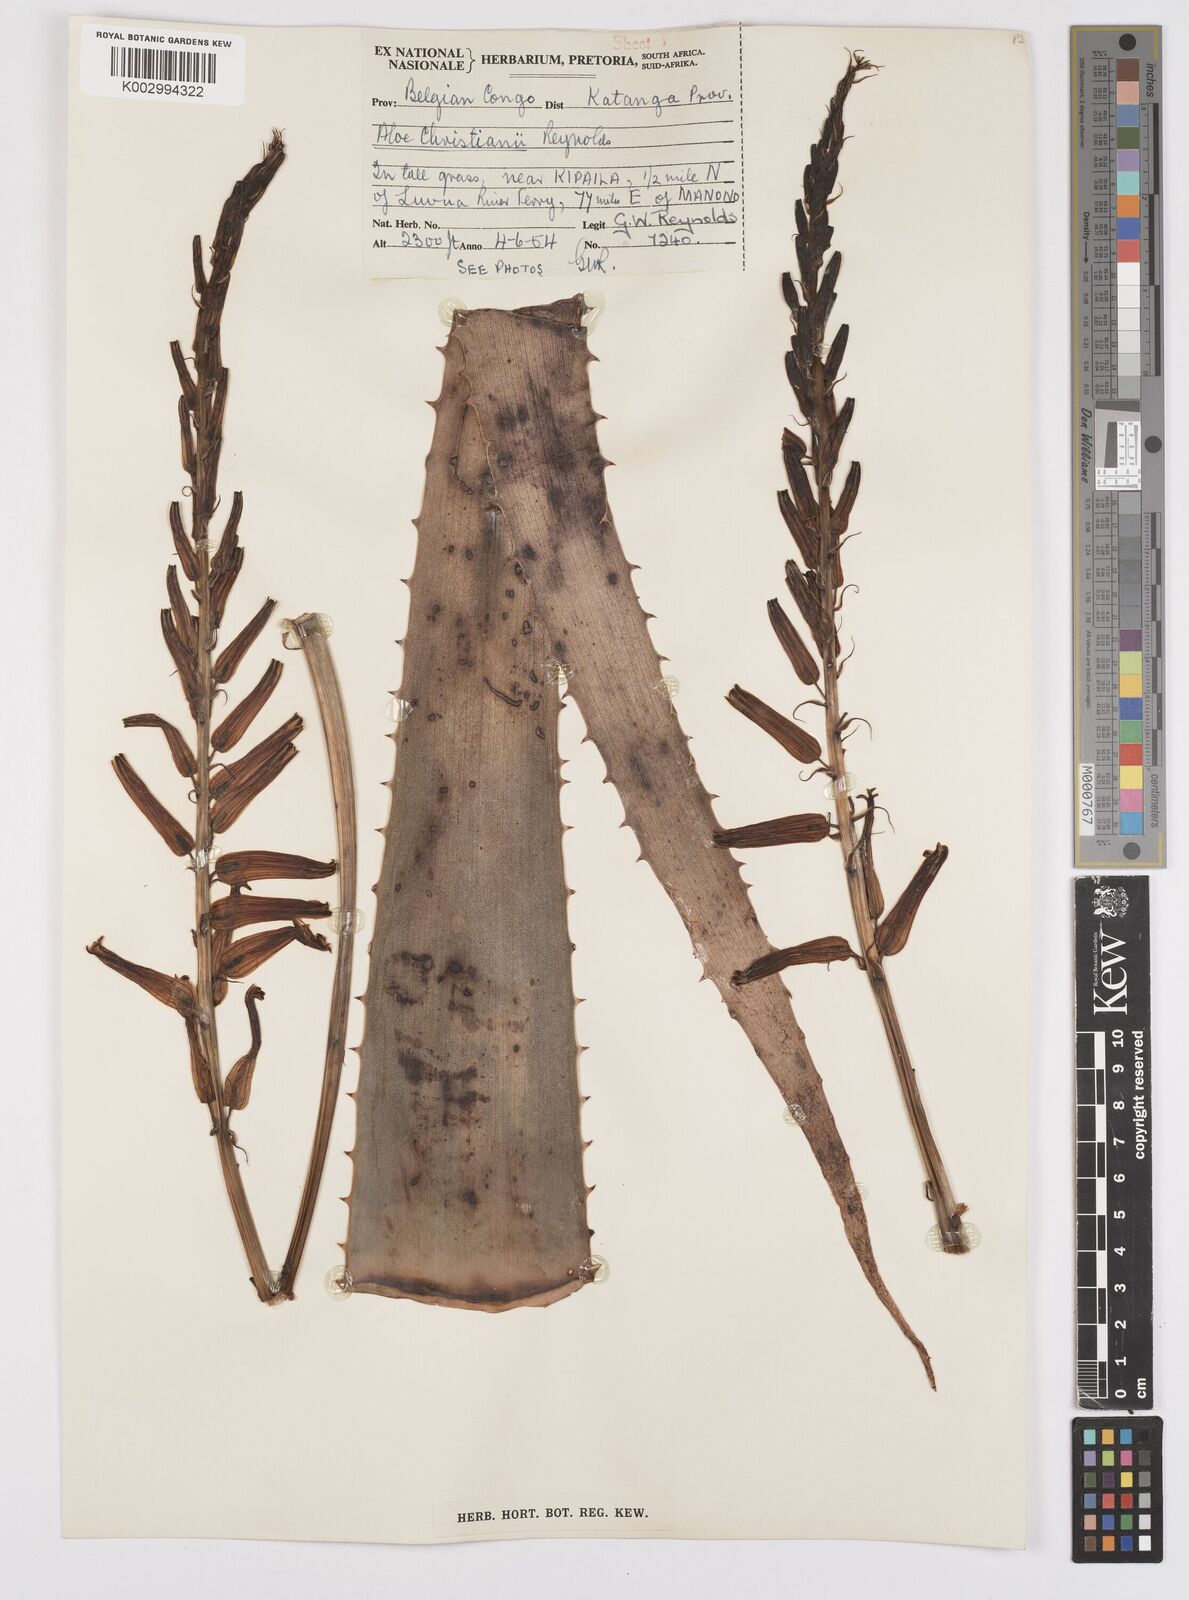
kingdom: Plantae
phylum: Tracheophyta
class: Liliopsida
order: Asparagales
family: Asphodelaceae
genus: Aloe
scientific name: Aloe christianii
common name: Basil christian's aloe
